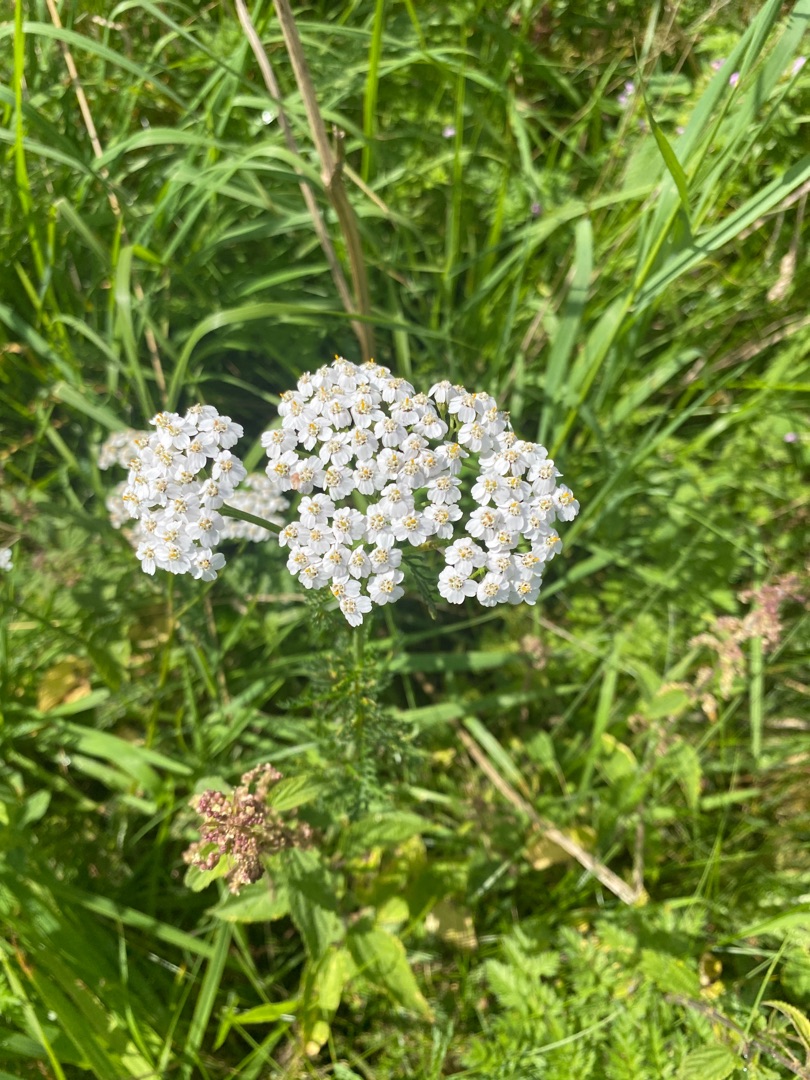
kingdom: Plantae
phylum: Tracheophyta
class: Magnoliopsida
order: Asterales
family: Asteraceae
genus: Achillea
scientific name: Achillea millefolium
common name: Almindelig røllike
